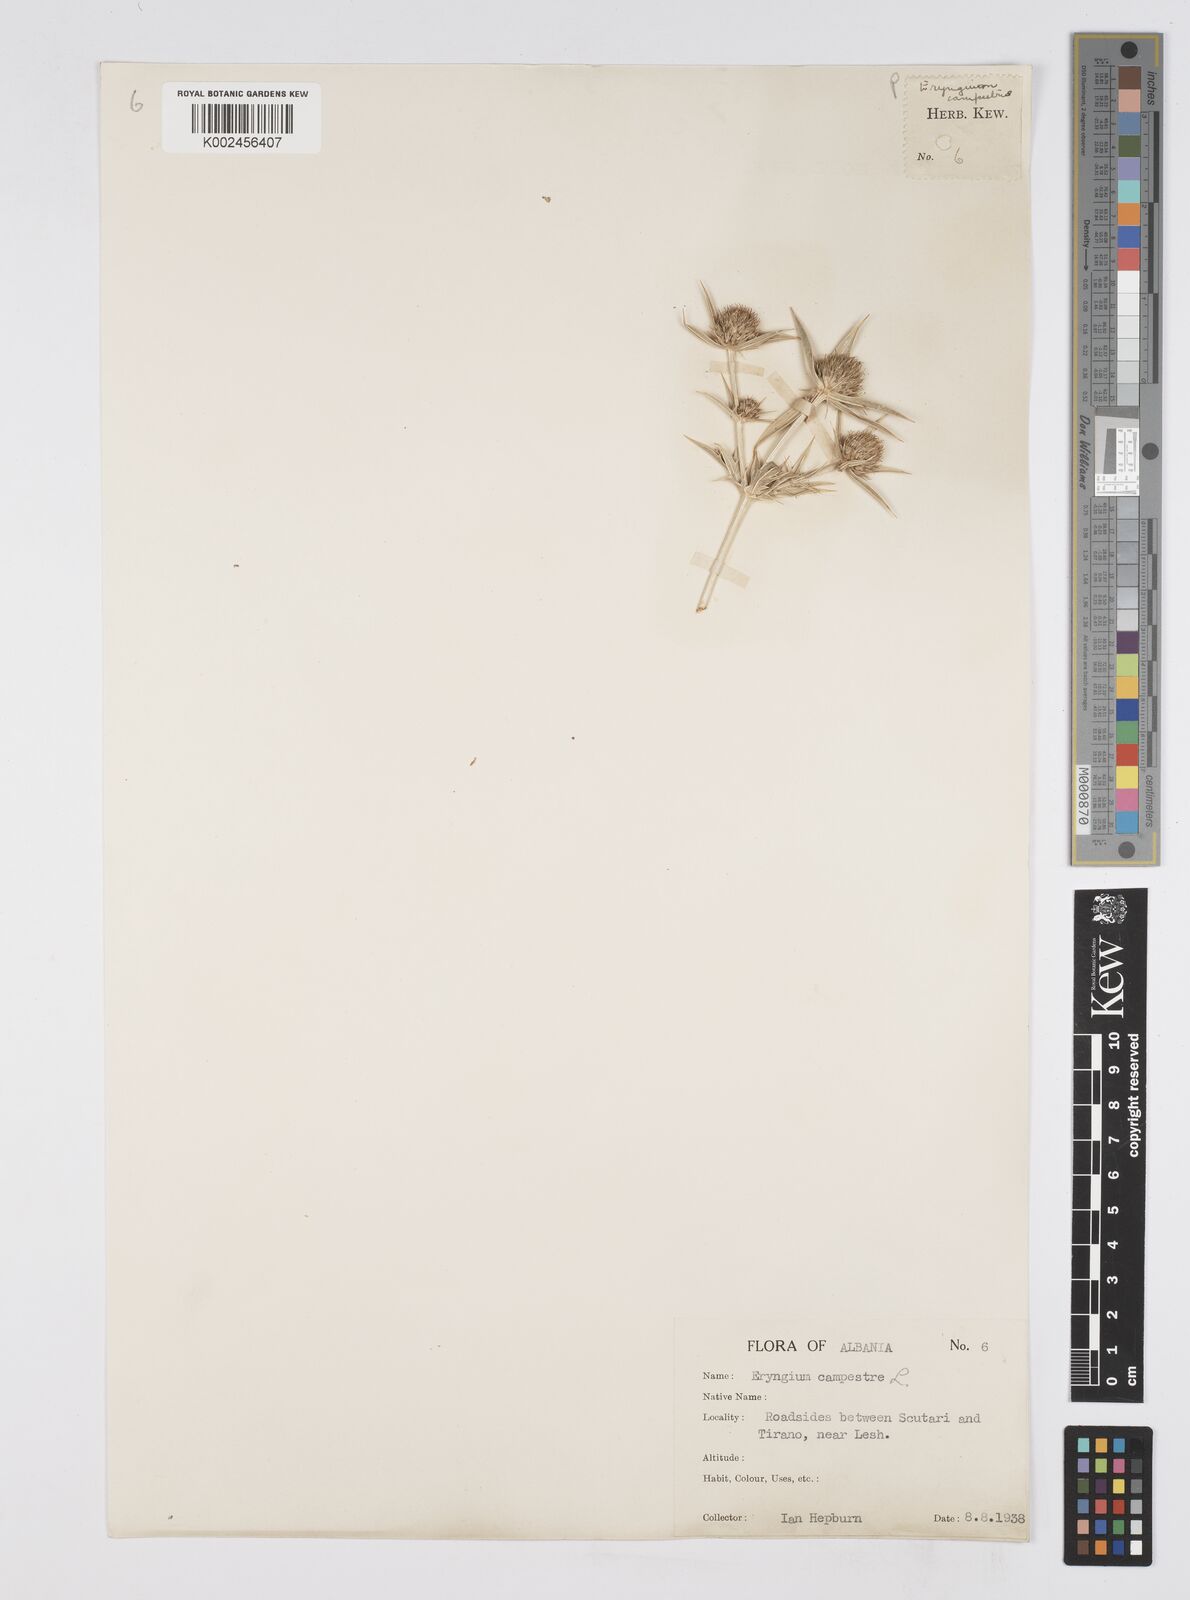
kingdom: Plantae
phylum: Tracheophyta
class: Magnoliopsida
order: Apiales
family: Apiaceae
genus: Eryngium
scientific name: Eryngium campestre
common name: Field eryngo
